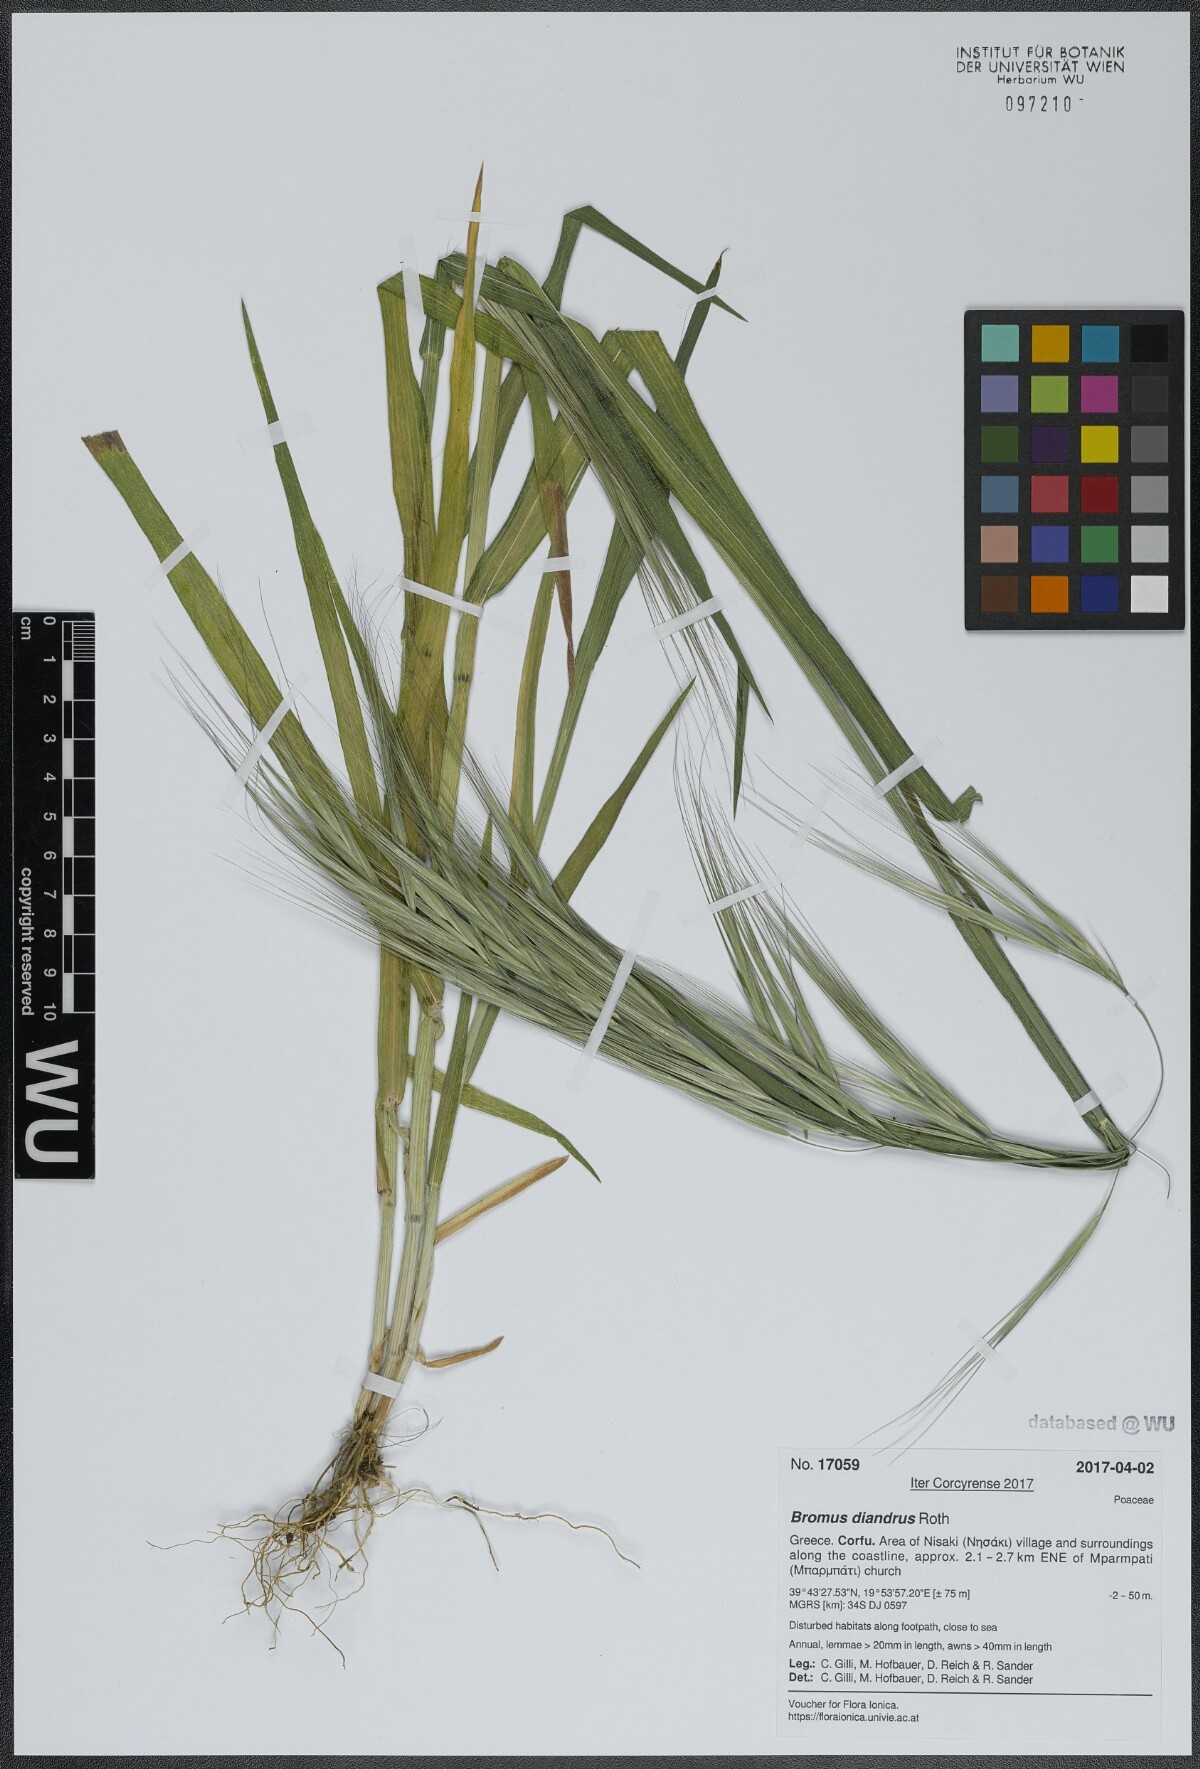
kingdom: Plantae
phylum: Tracheophyta
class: Liliopsida
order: Poales
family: Poaceae
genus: Bromus
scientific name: Bromus diandrus
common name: Ripgut brome
